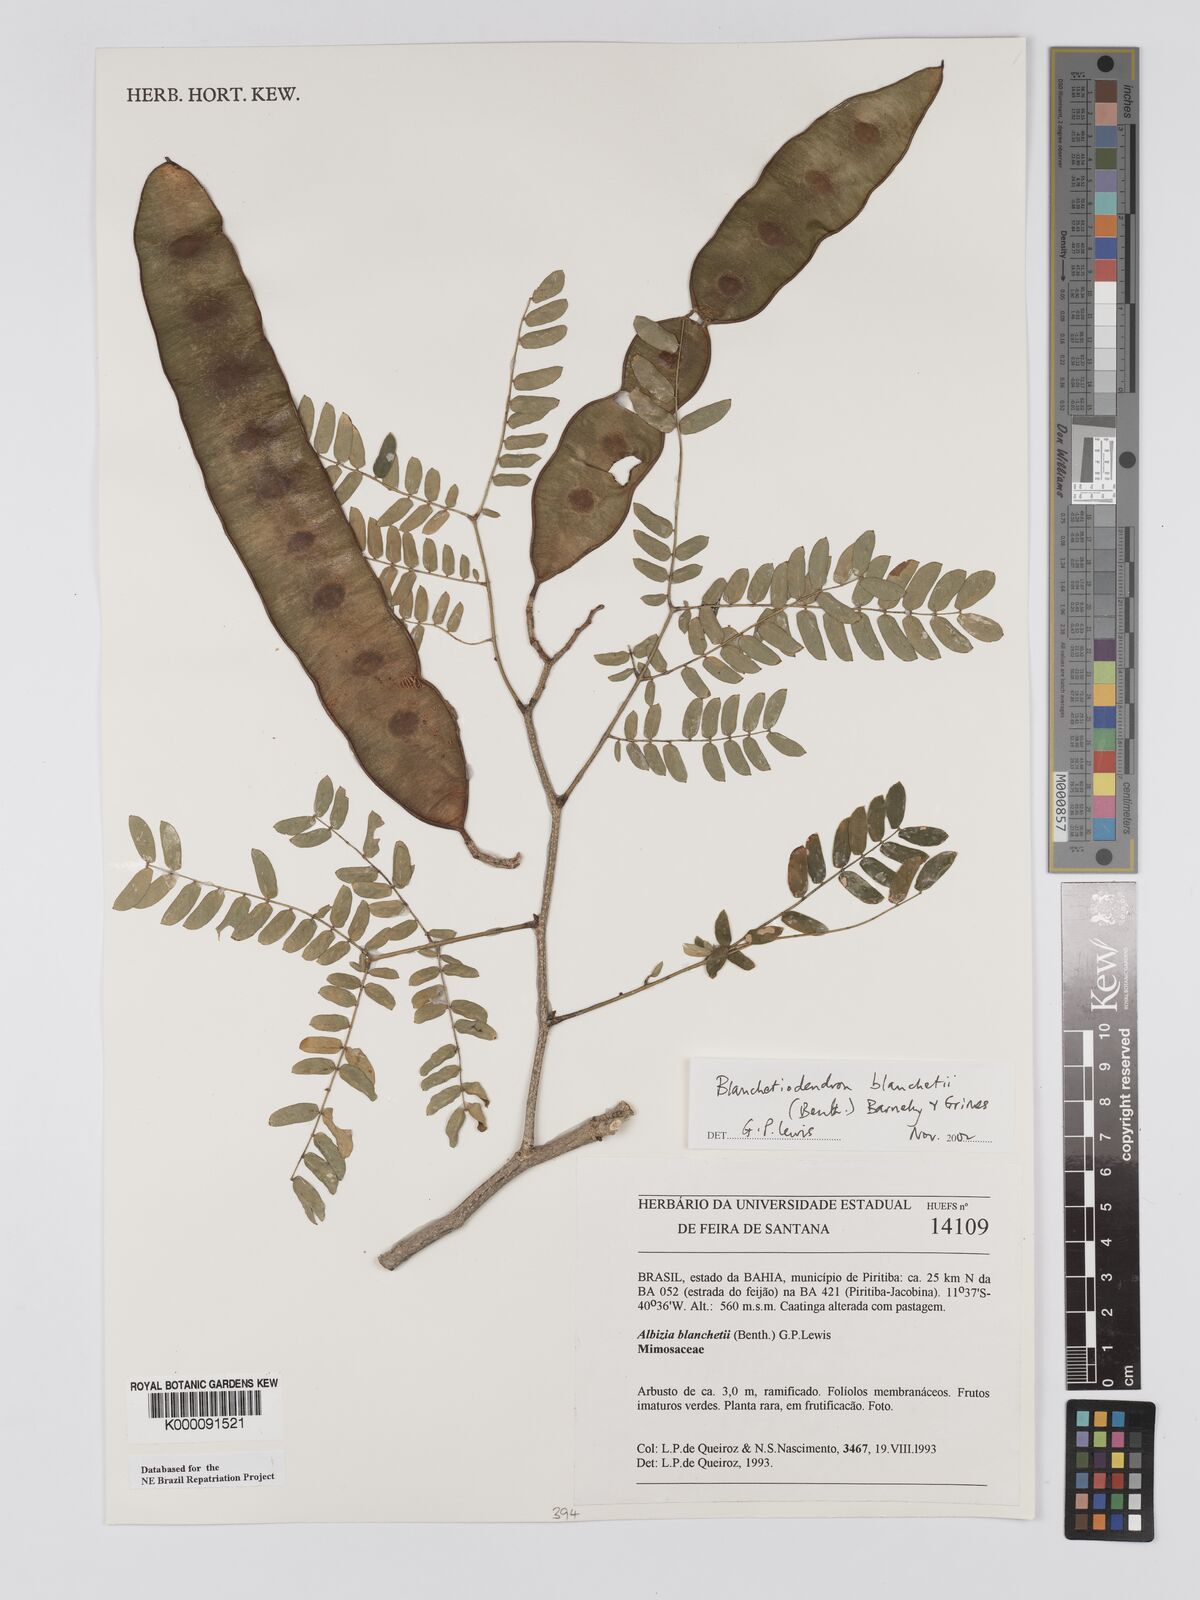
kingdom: Plantae
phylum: Tracheophyta
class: Magnoliopsida
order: Fabales
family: Fabaceae
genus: Blanchetiodendron
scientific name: Blanchetiodendron blanchetii
